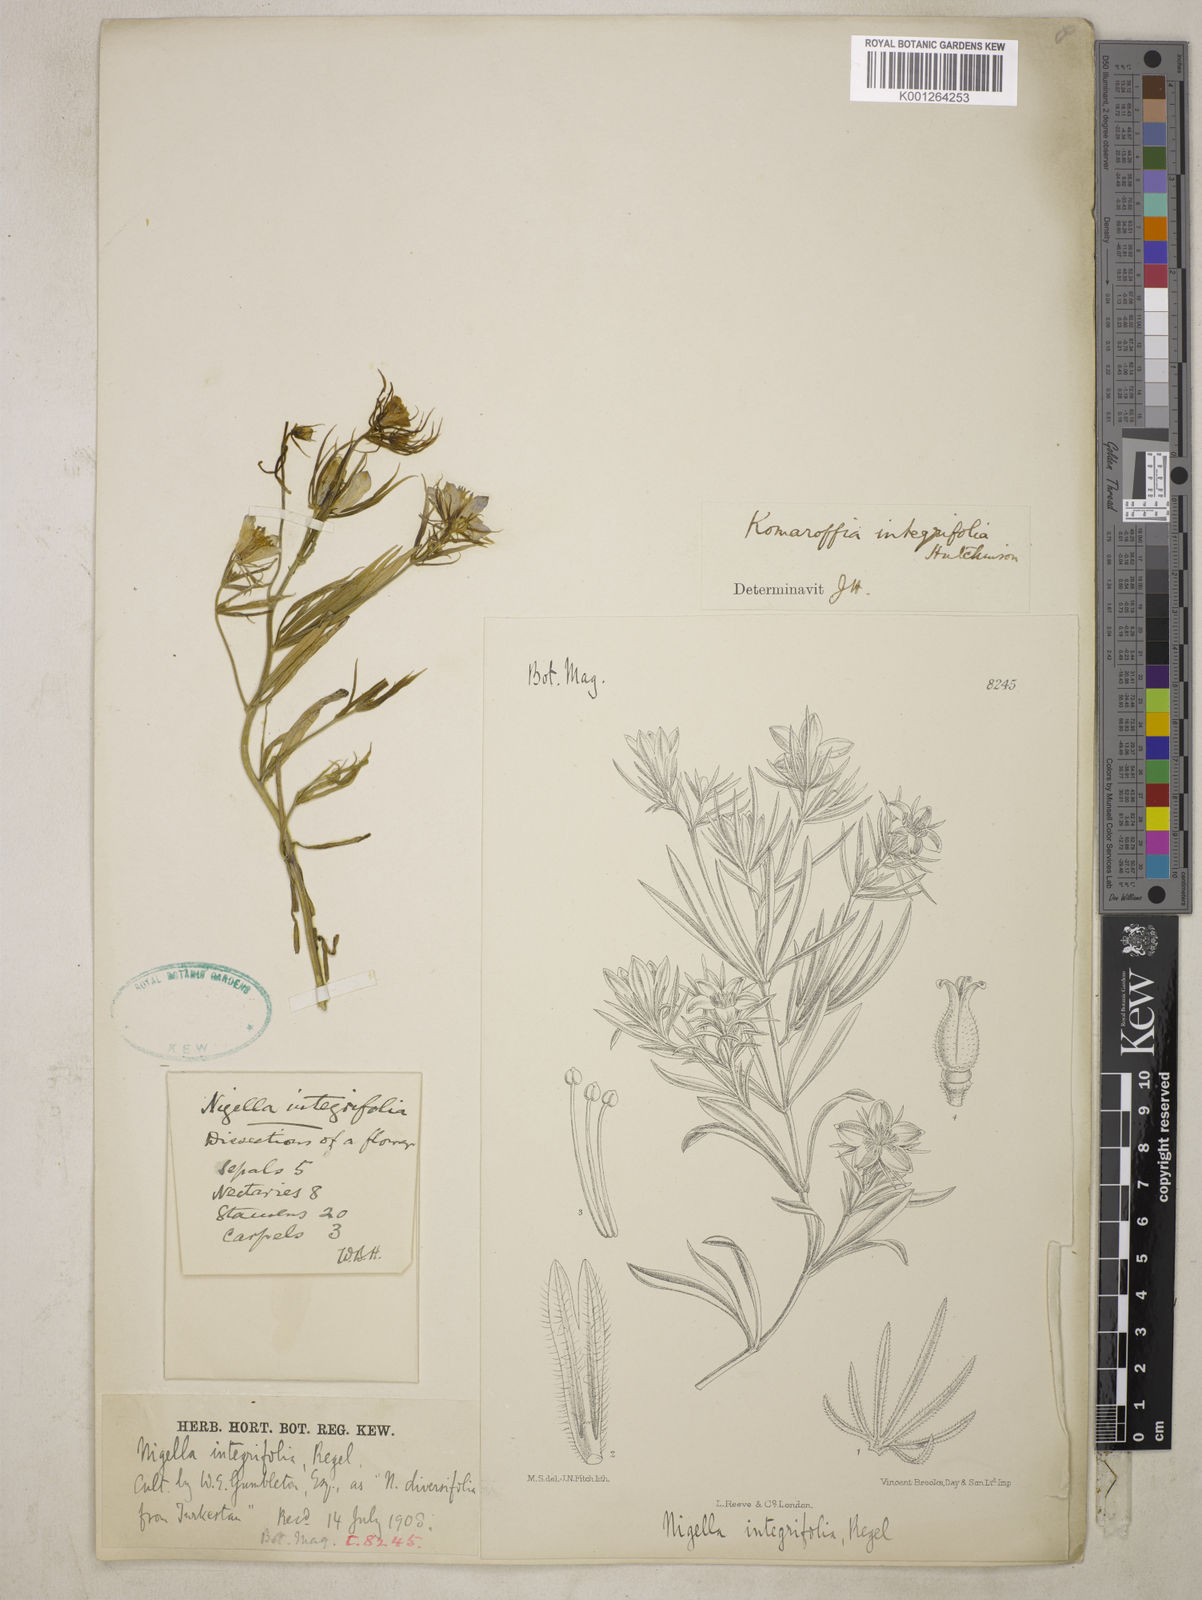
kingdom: Plantae
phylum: Tracheophyta
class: Magnoliopsida
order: Ranunculales
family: Ranunculaceae
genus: Komaroffia
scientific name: Komaroffia integrifolia
